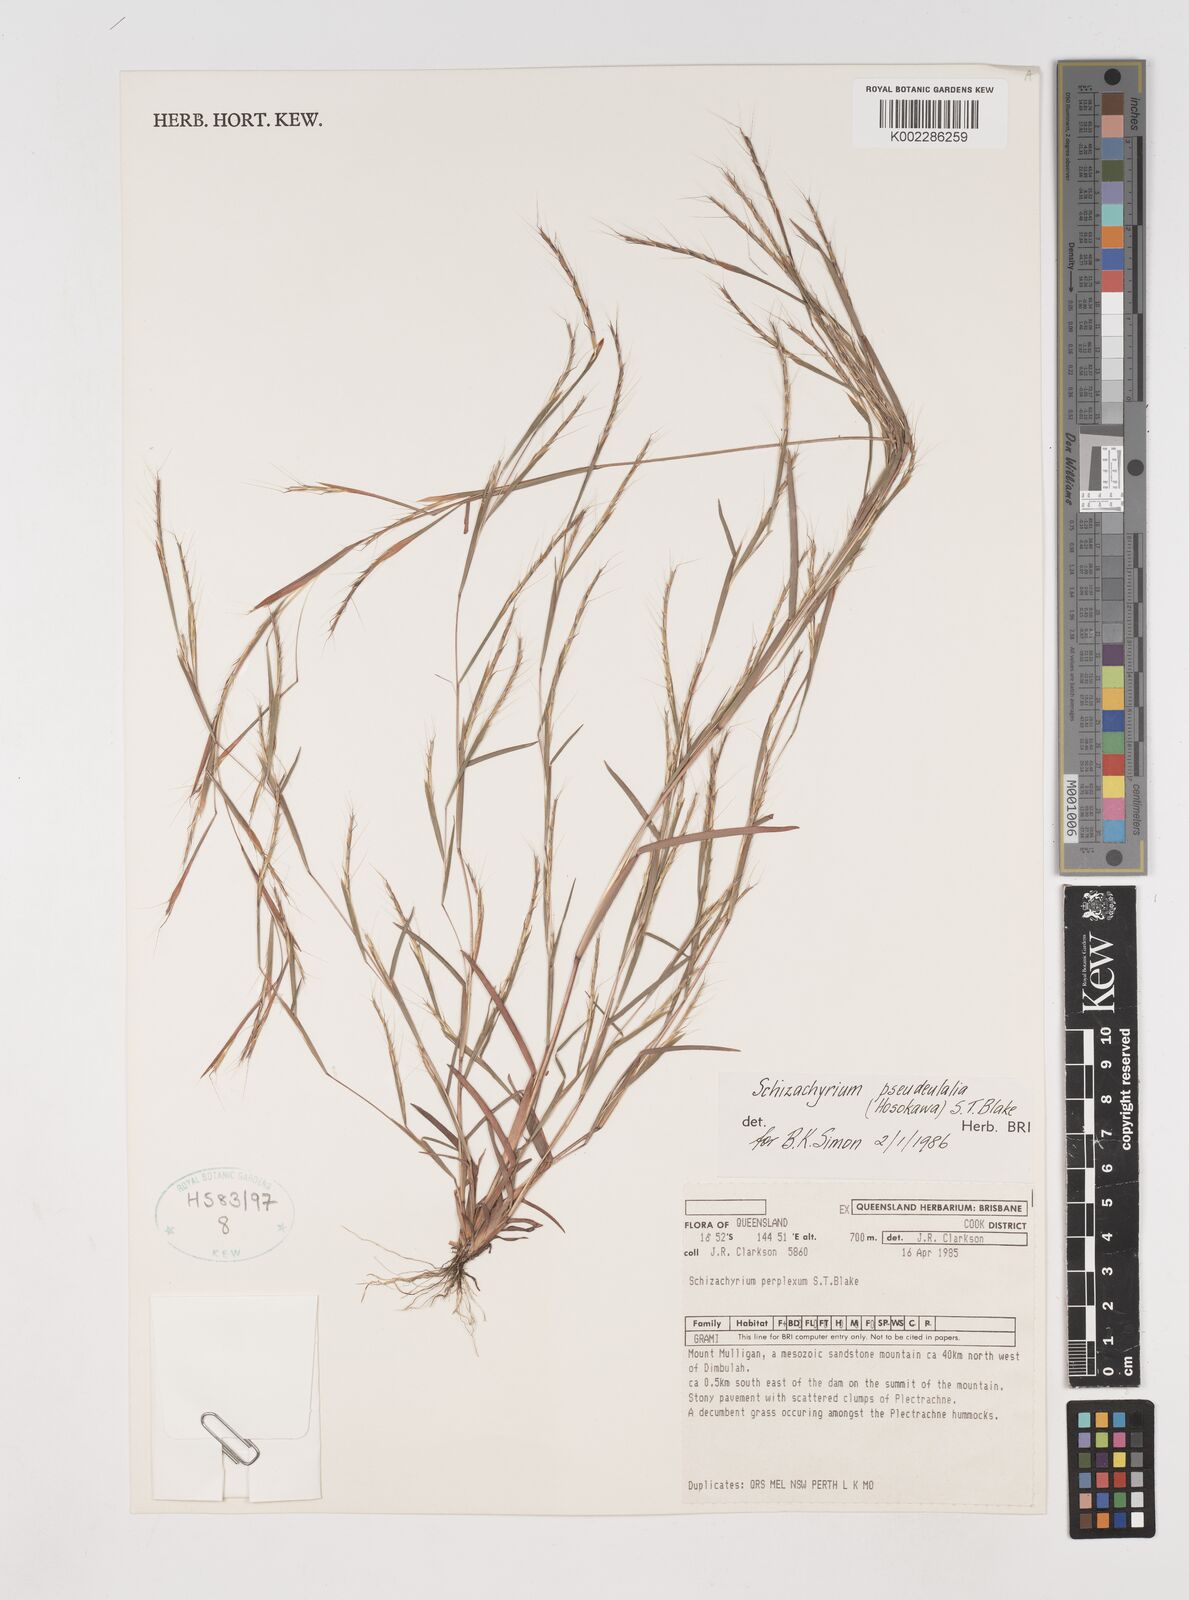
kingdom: Plantae
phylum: Tracheophyta
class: Liliopsida
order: Poales
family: Poaceae
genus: Schizachyrium
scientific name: Schizachyrium pseudeulalia
